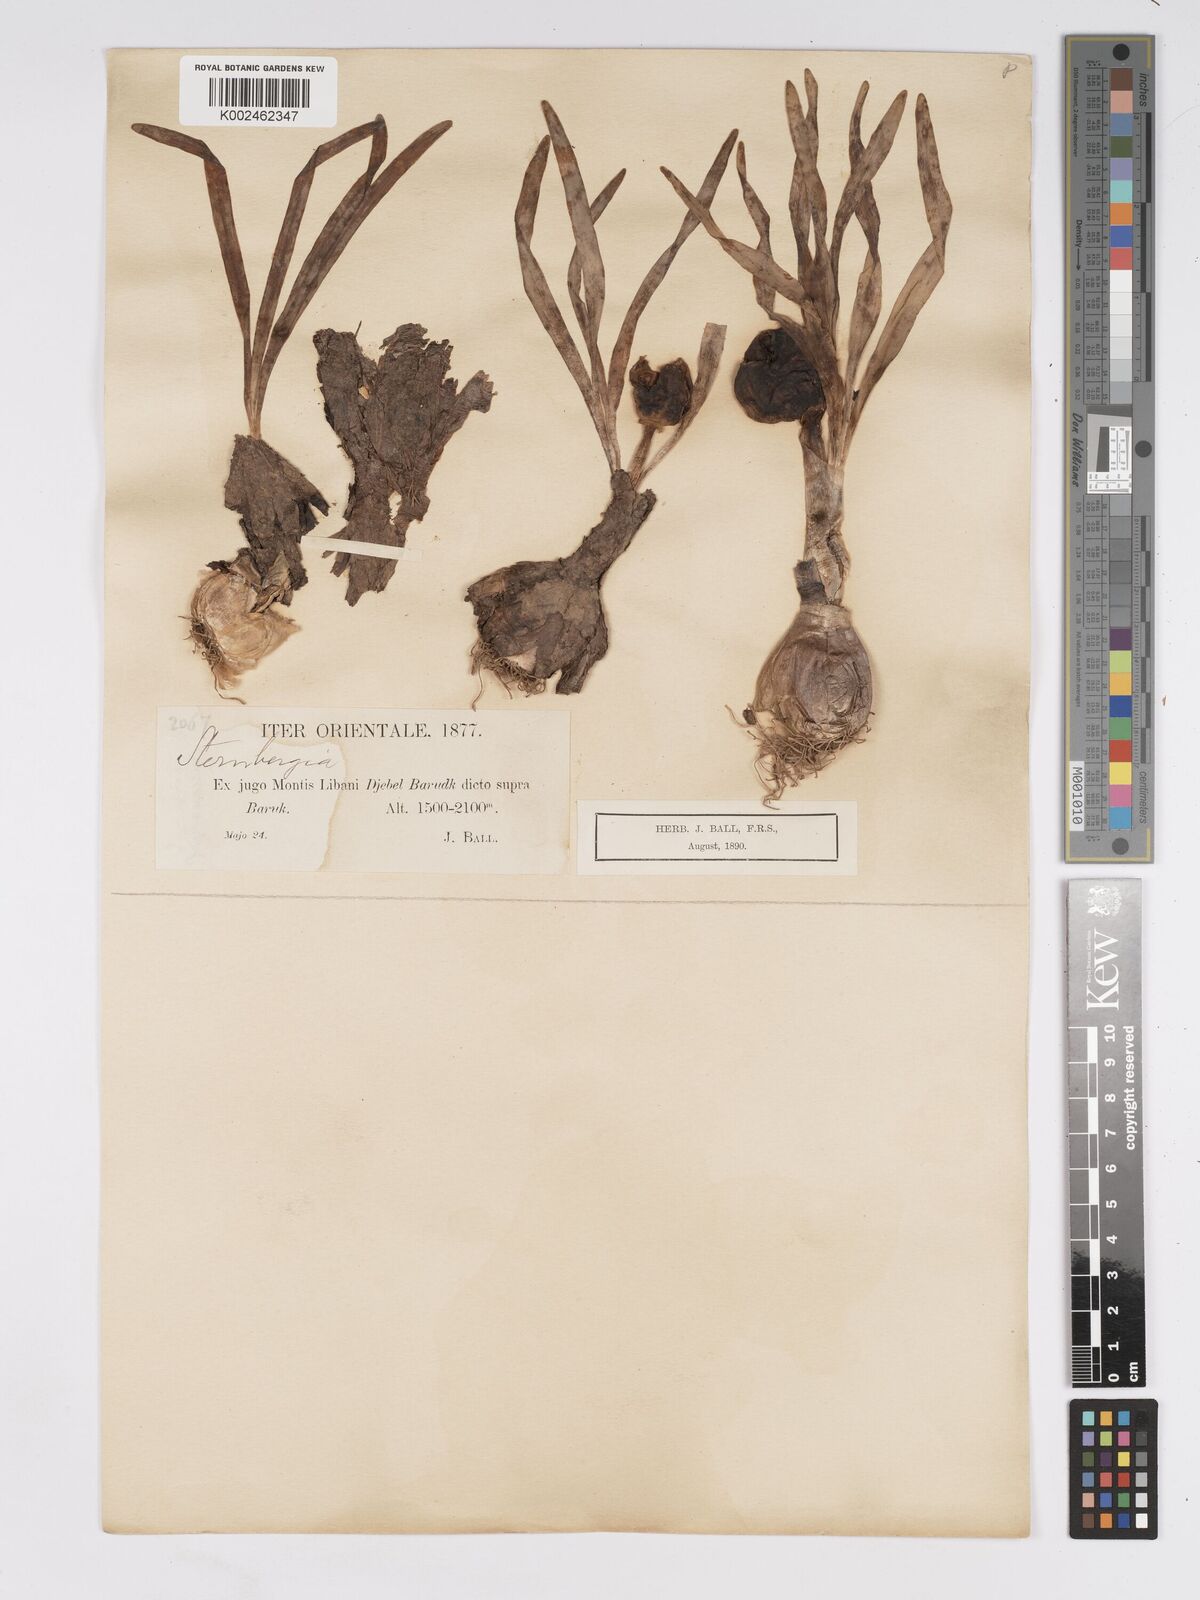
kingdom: Plantae
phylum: Tracheophyta
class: Liliopsida
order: Asparagales
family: Amaryllidaceae
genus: Sternbergia
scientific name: Sternbergia clusiana
